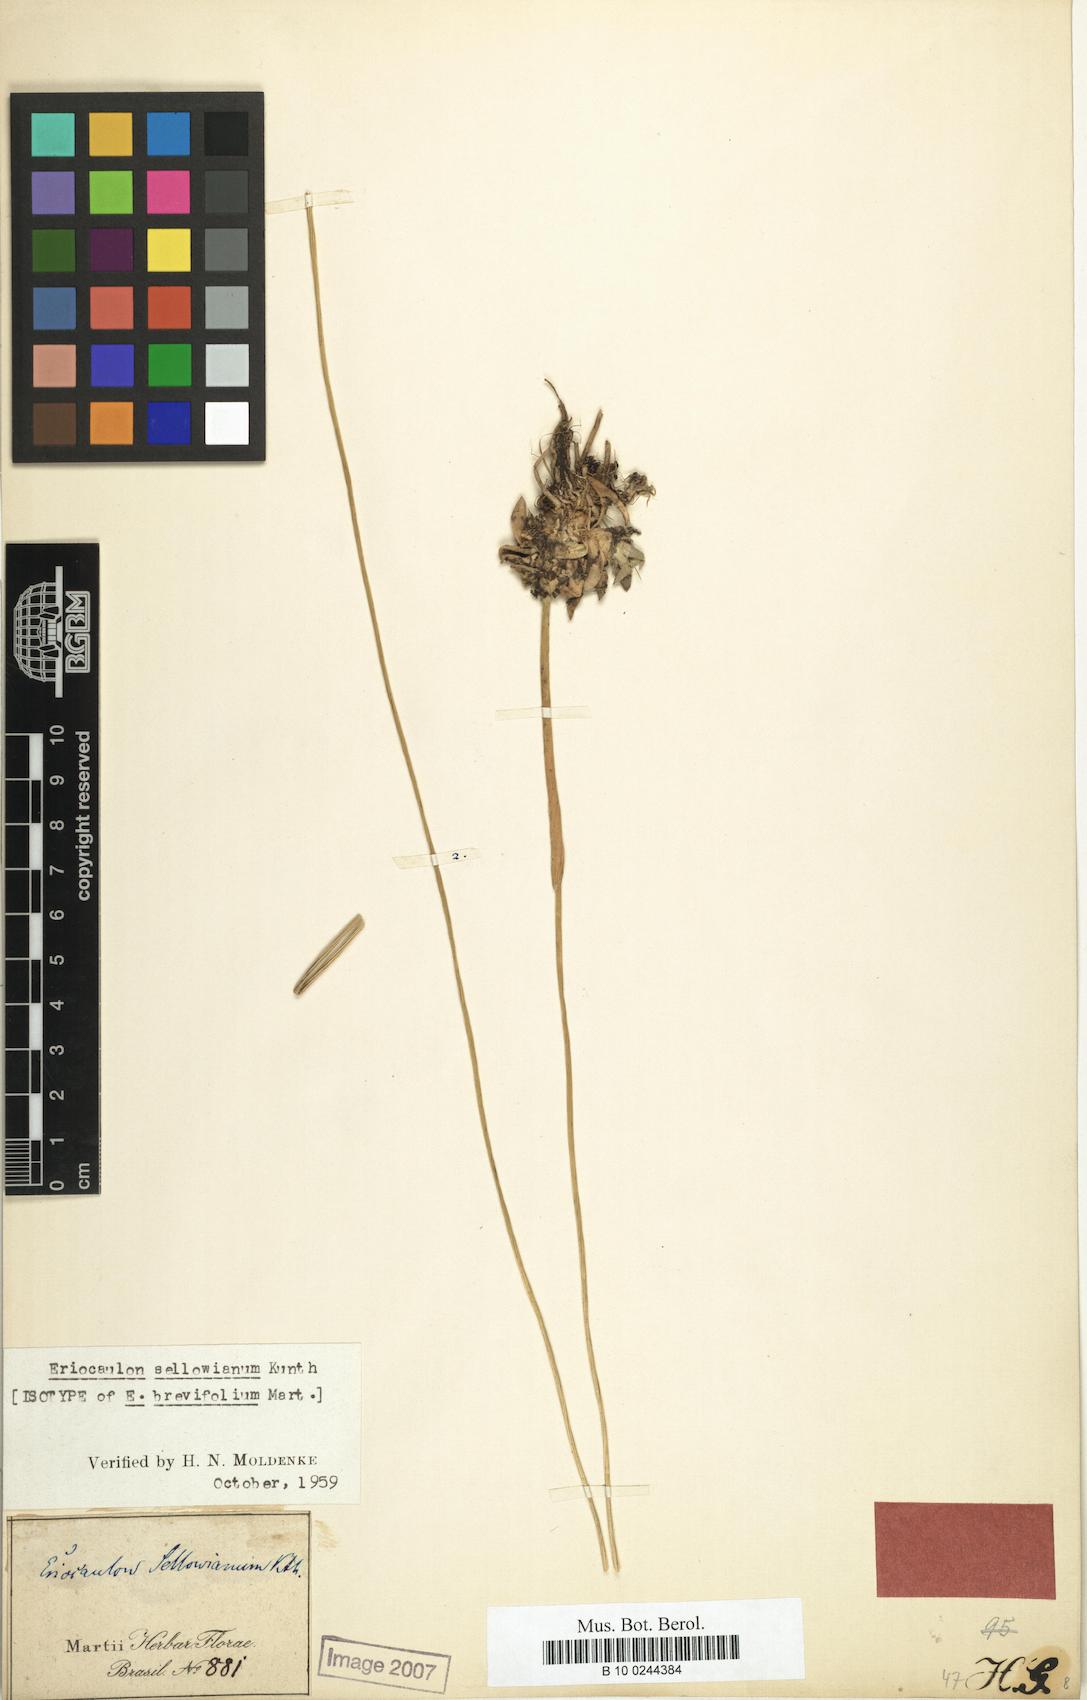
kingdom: Plantae
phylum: Tracheophyta
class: Liliopsida
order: Poales
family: Eriocaulaceae
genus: Eriocaulon
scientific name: Eriocaulon sellowianum
